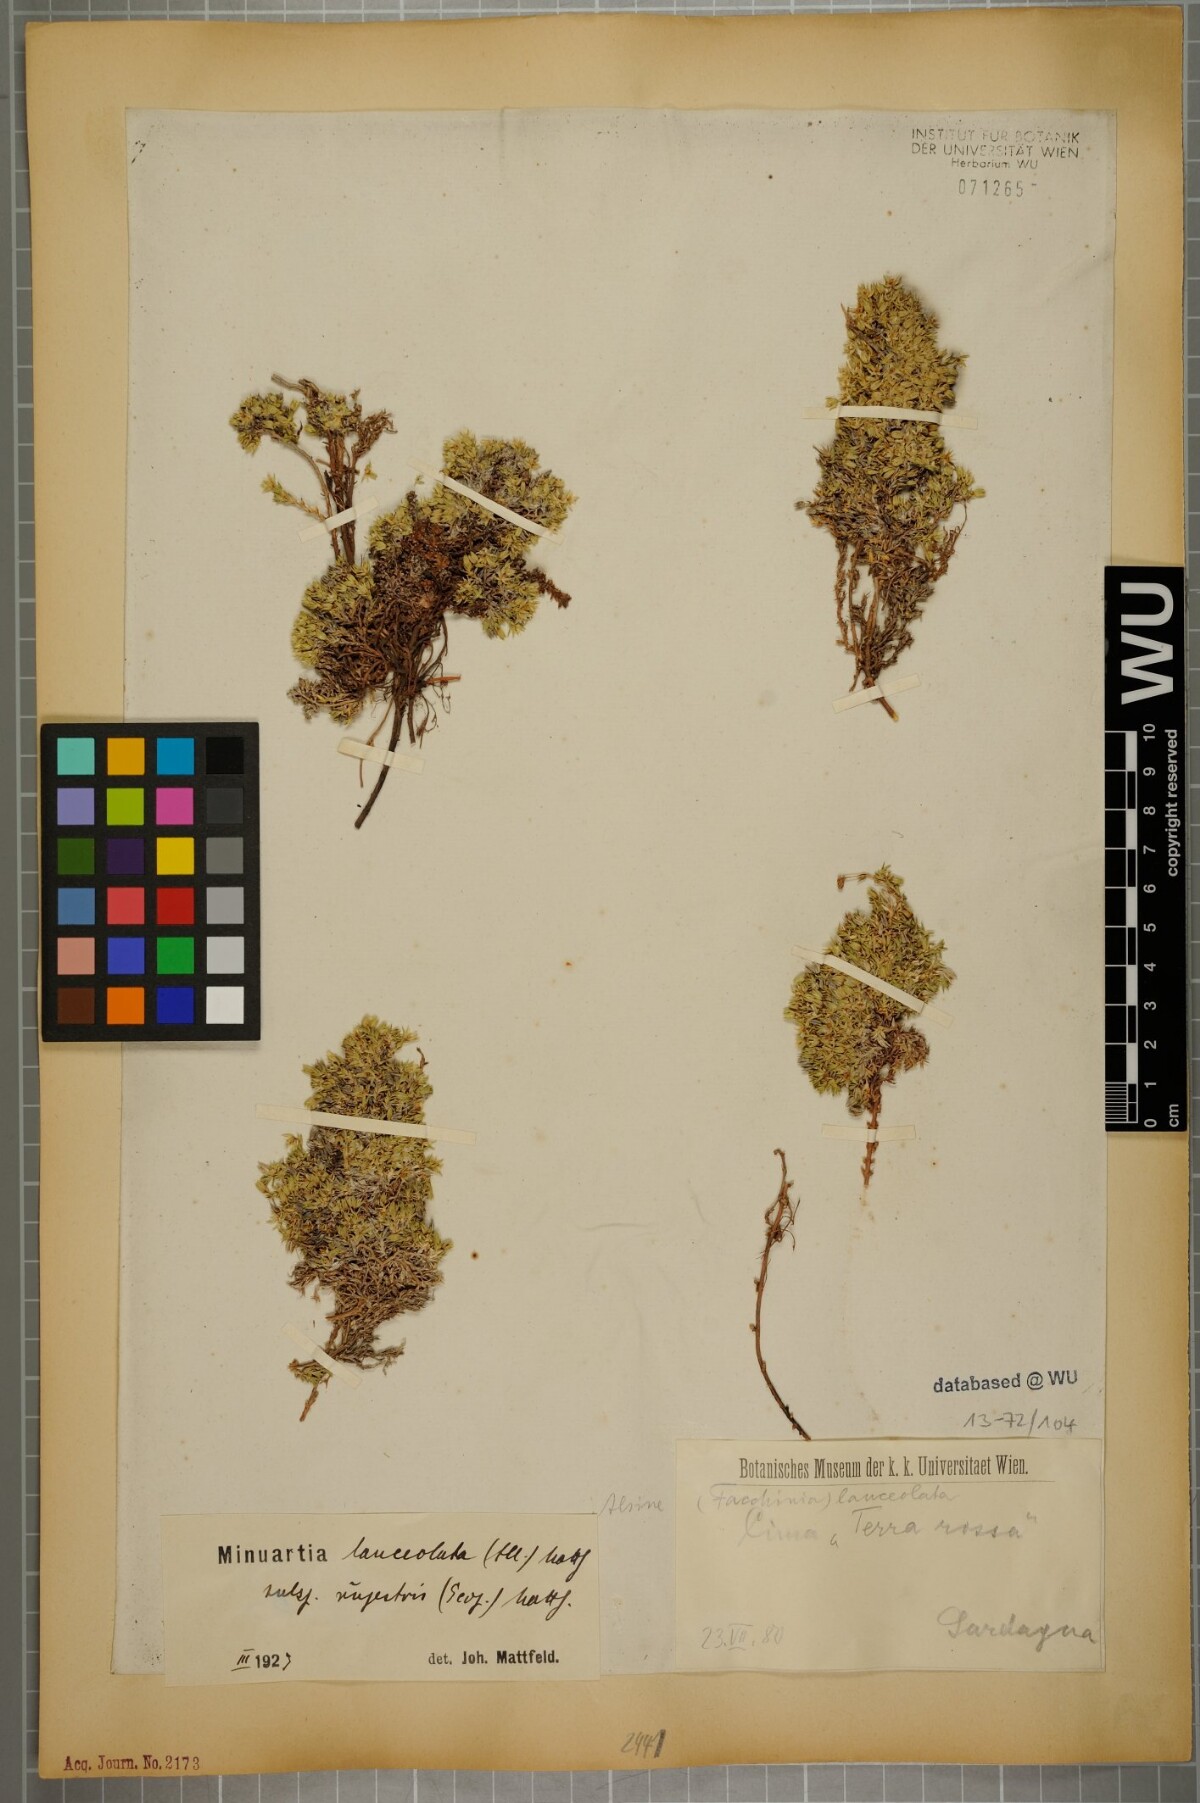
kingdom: Plantae
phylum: Tracheophyta
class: Magnoliopsida
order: Caryophyllales
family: Caryophyllaceae
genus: Facchinia
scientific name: Facchinia rupestris
